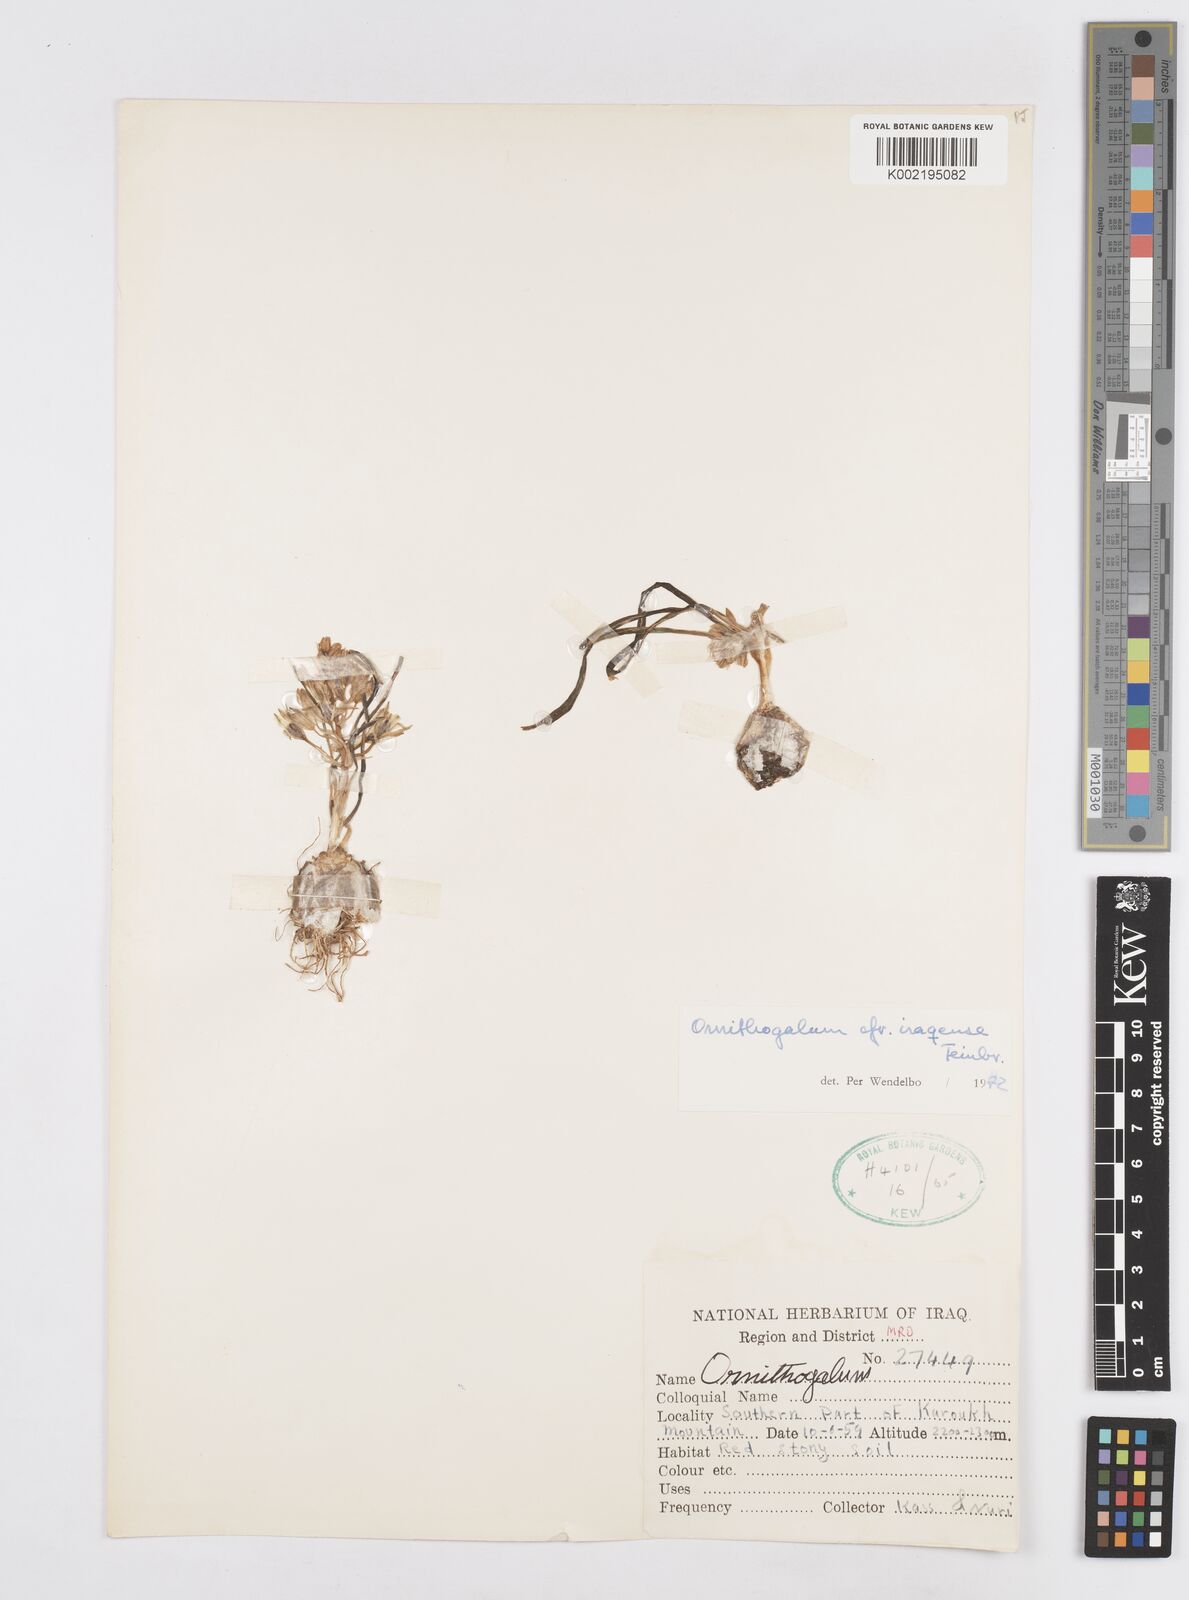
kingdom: Plantae
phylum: Tracheophyta
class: Liliopsida
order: Asparagales
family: Asparagaceae
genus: Ornithogalum
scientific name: Ornithogalum iraqense
